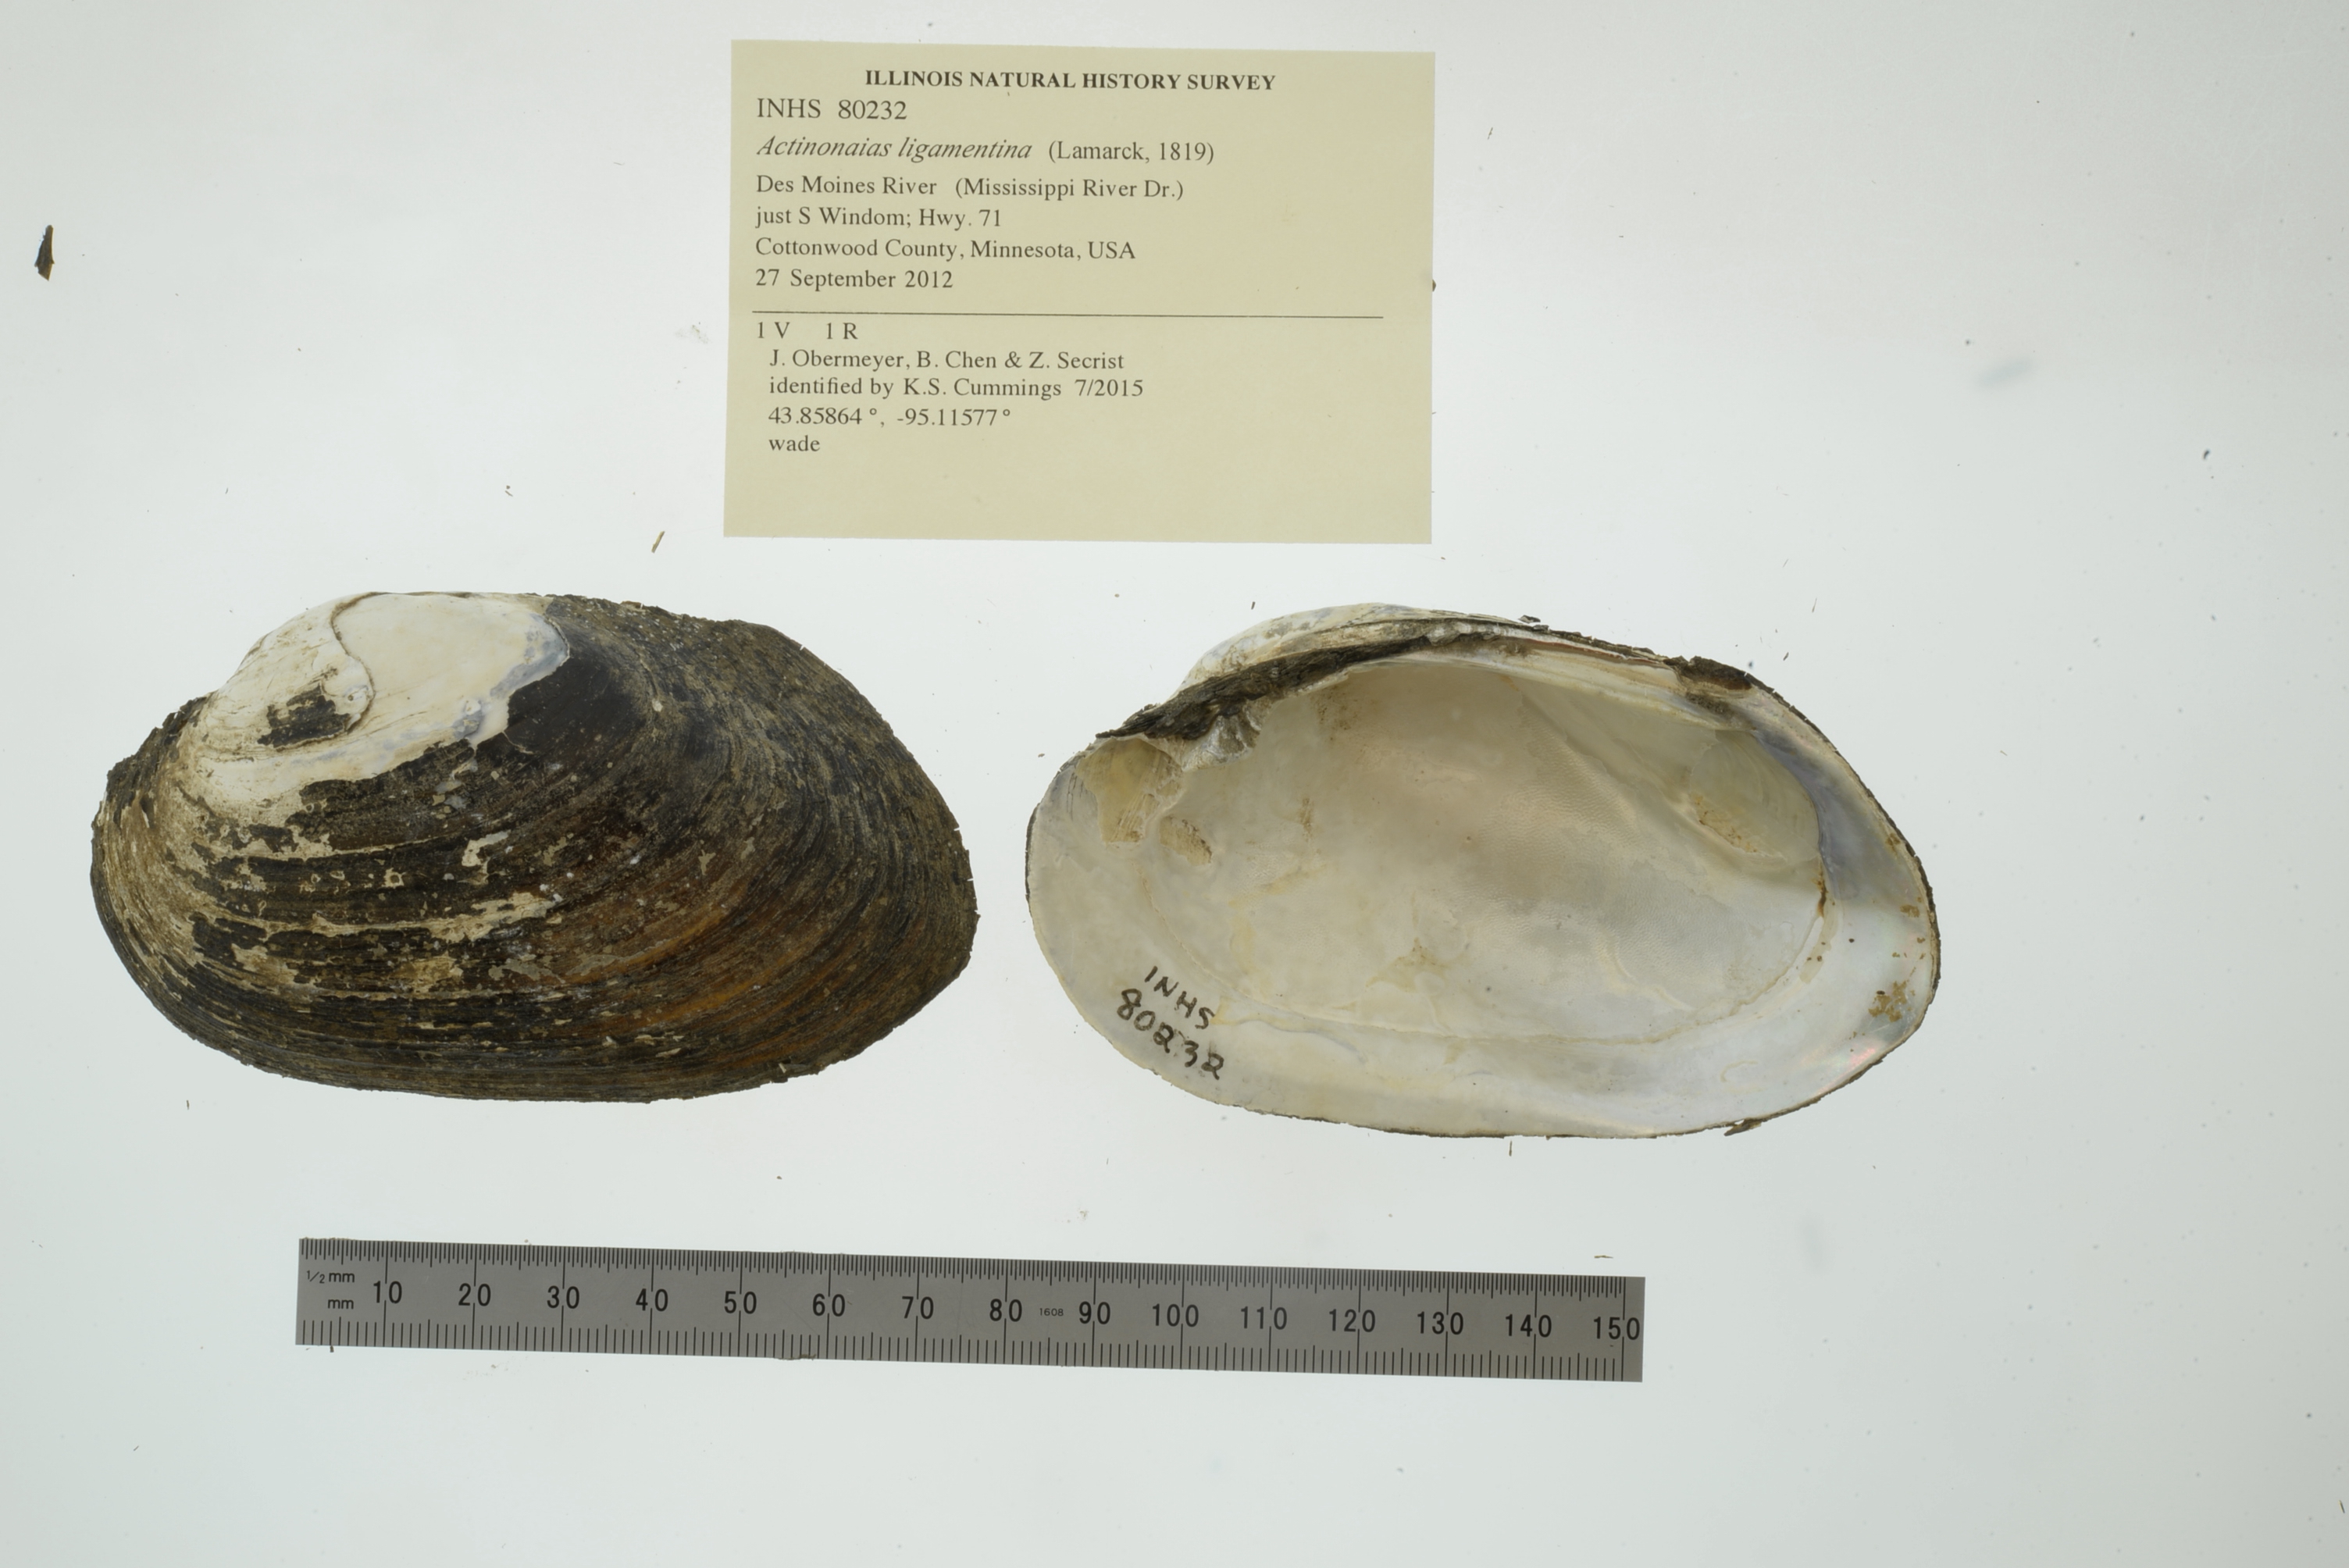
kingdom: Animalia
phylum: Mollusca
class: Bivalvia
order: Unionida
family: Unionidae
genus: Ortmanniana
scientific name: Ortmanniana ligamentina
